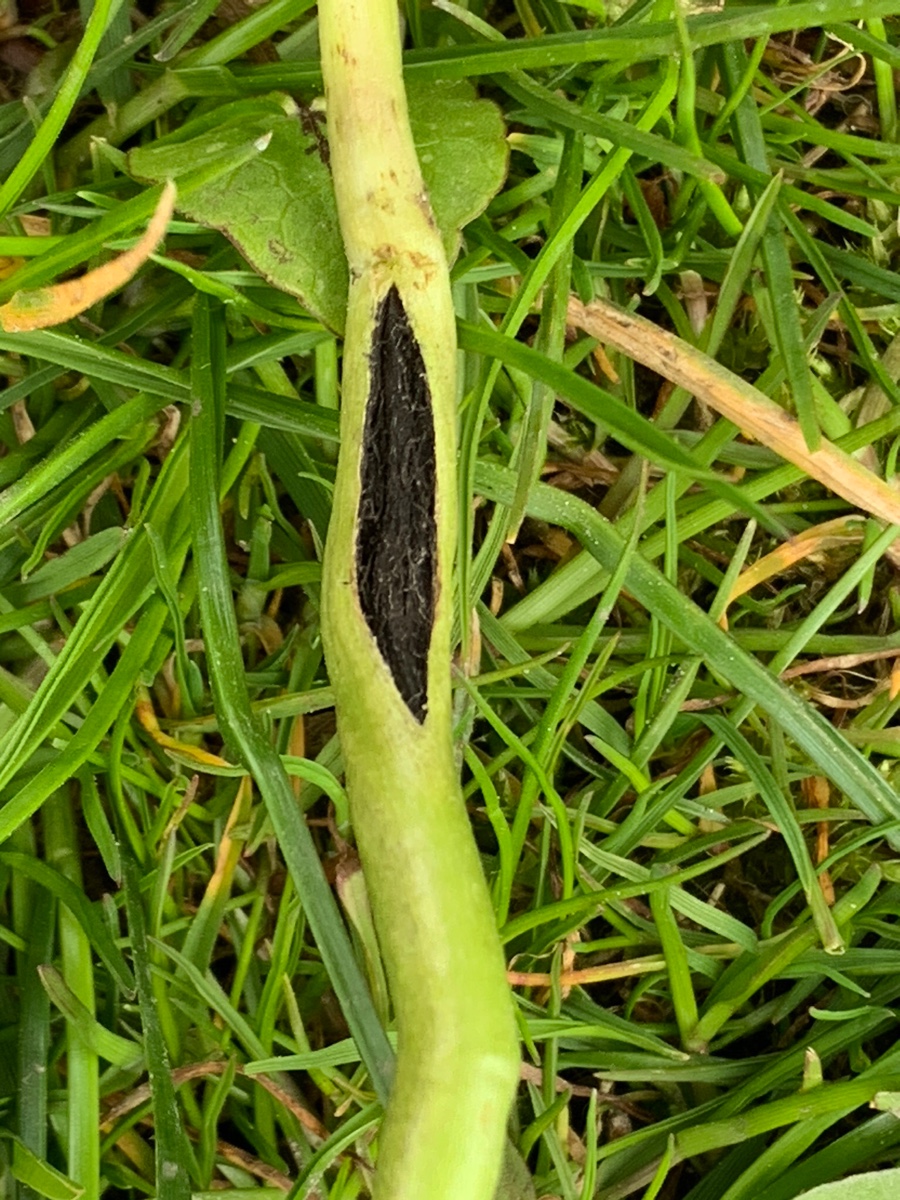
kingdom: Fungi
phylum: Basidiomycota
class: Ustilaginomycetes
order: Urocystidales
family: Urocystidaceae
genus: Urocystis
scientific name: Urocystis eranthidis
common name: erantis-brand
